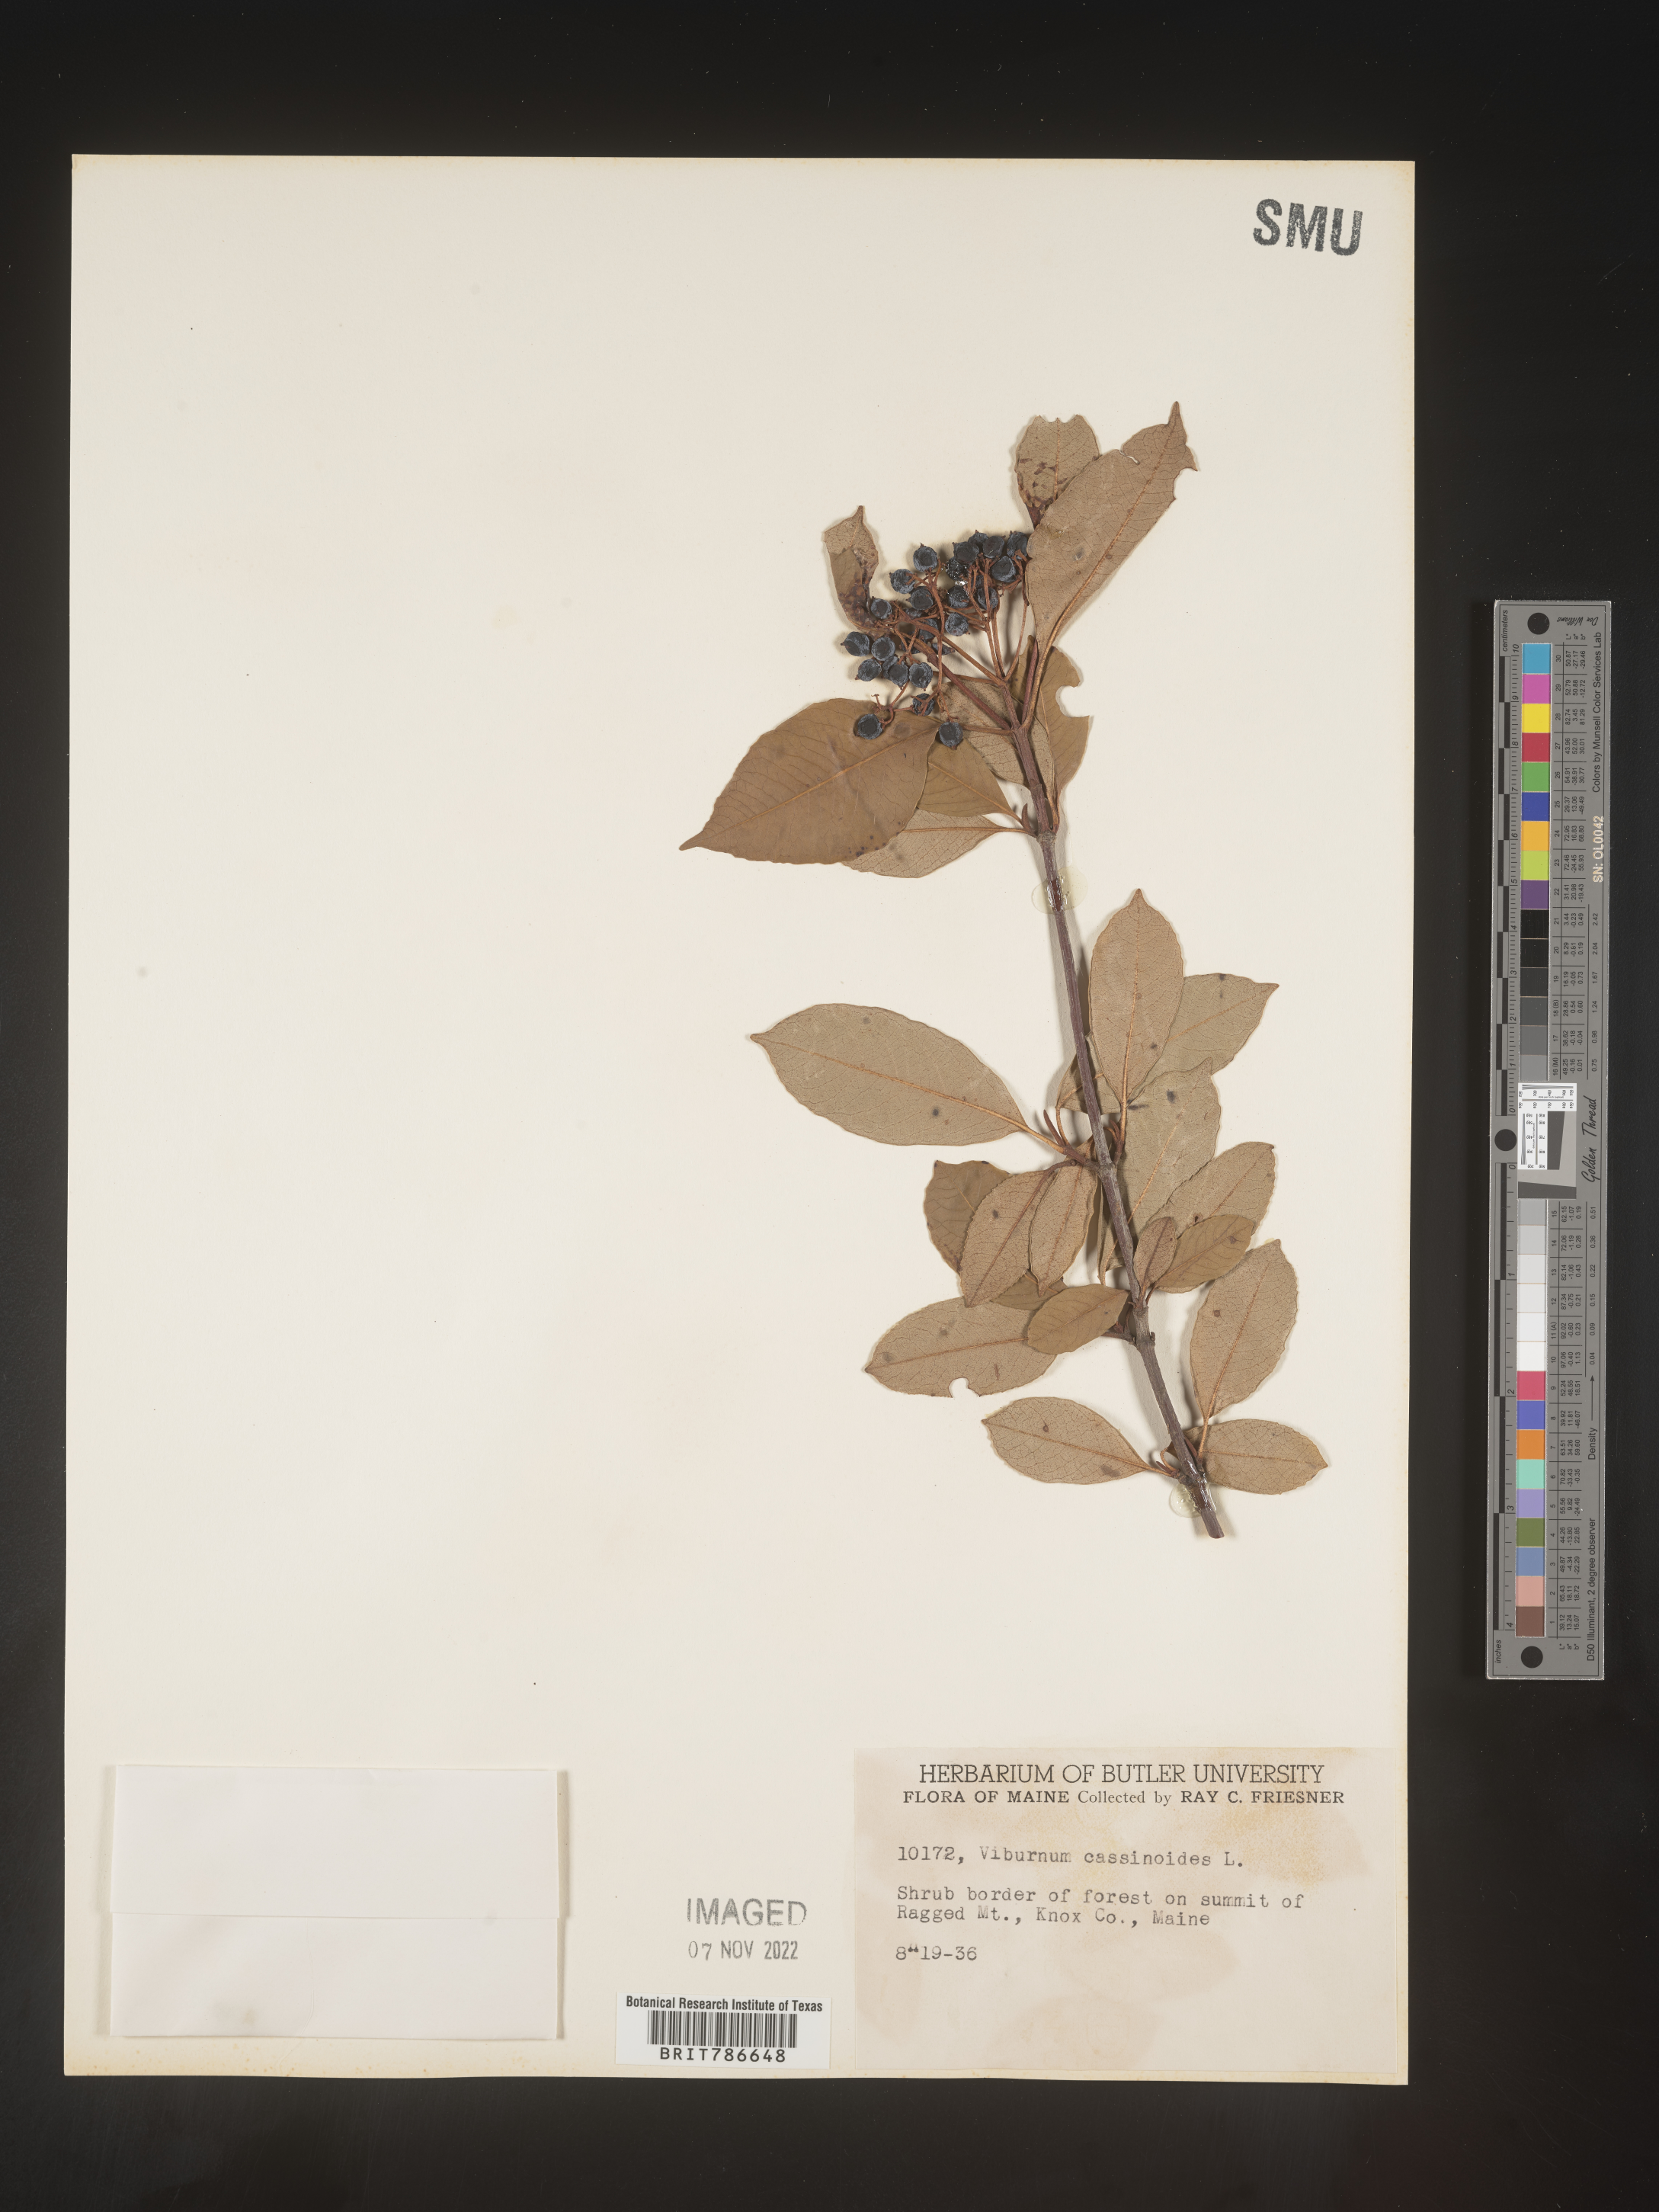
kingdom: Plantae
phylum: Tracheophyta
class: Magnoliopsida
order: Dipsacales
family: Viburnaceae
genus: Viburnum
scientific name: Viburnum cassinoides
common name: Swamp haw
